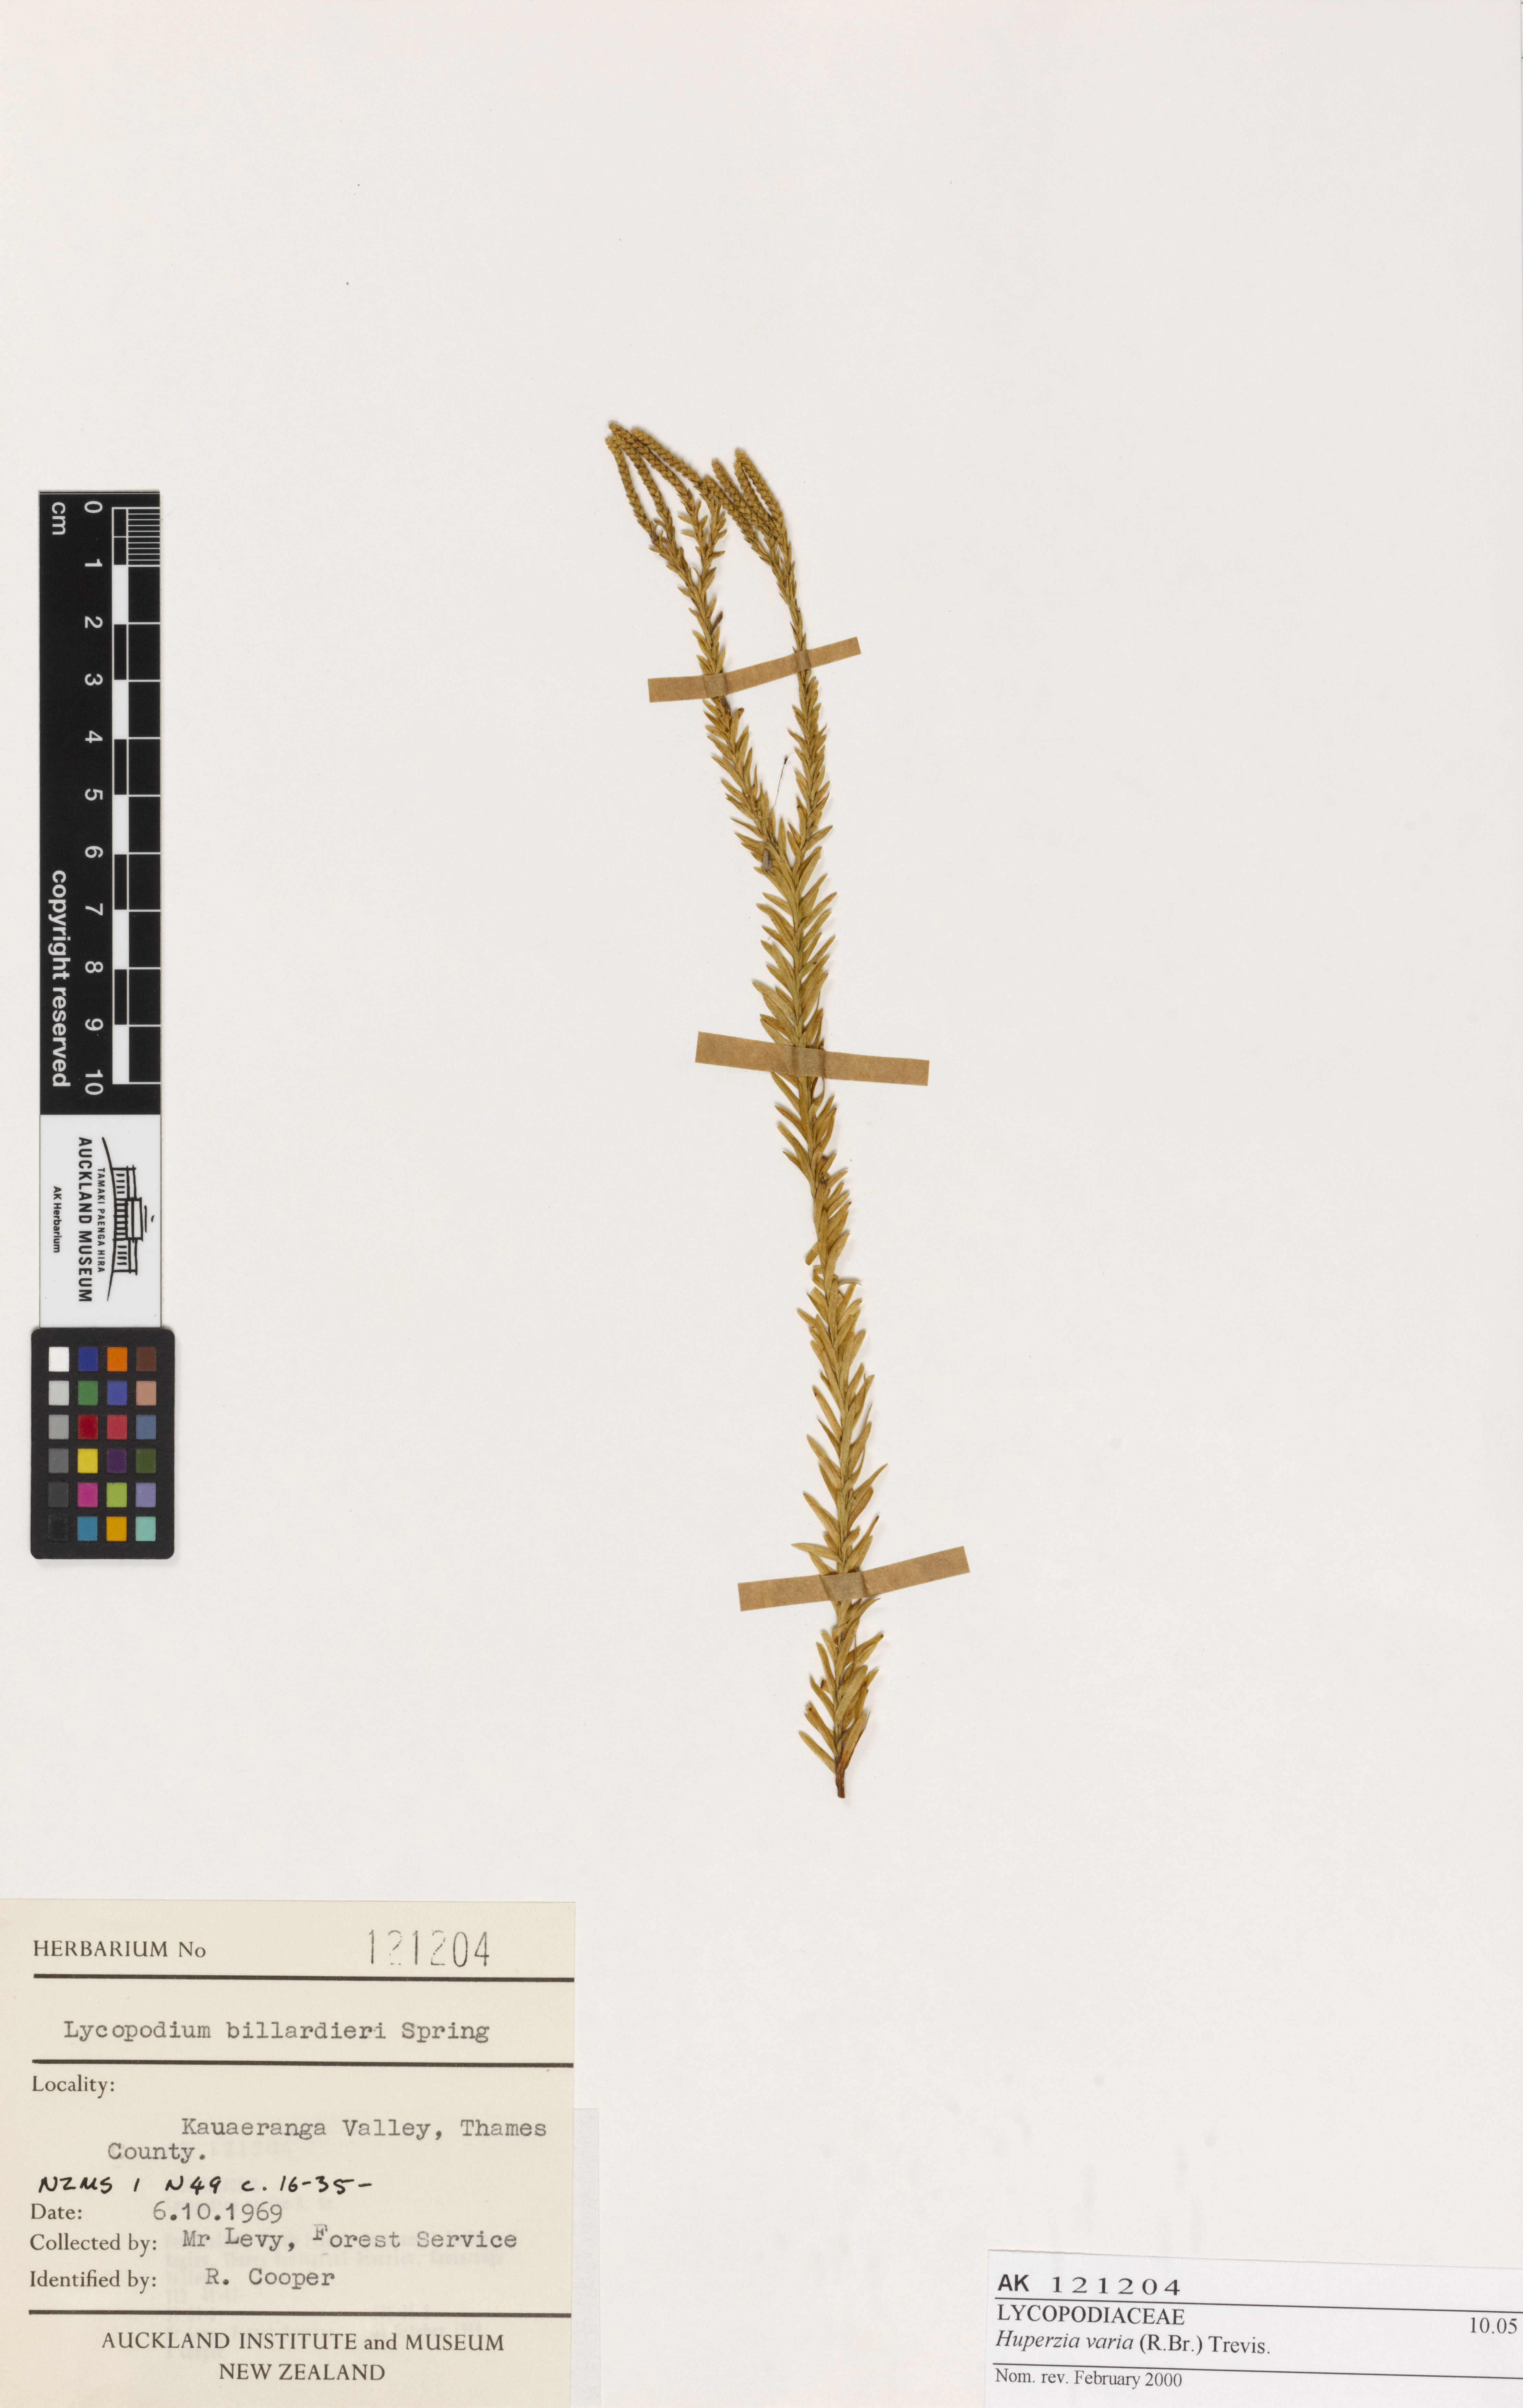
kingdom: Plantae
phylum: Tracheophyta
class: Lycopodiopsida
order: Lycopodiales
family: Lycopodiaceae
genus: Phlegmariurus
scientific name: Phlegmariurus billardierei
